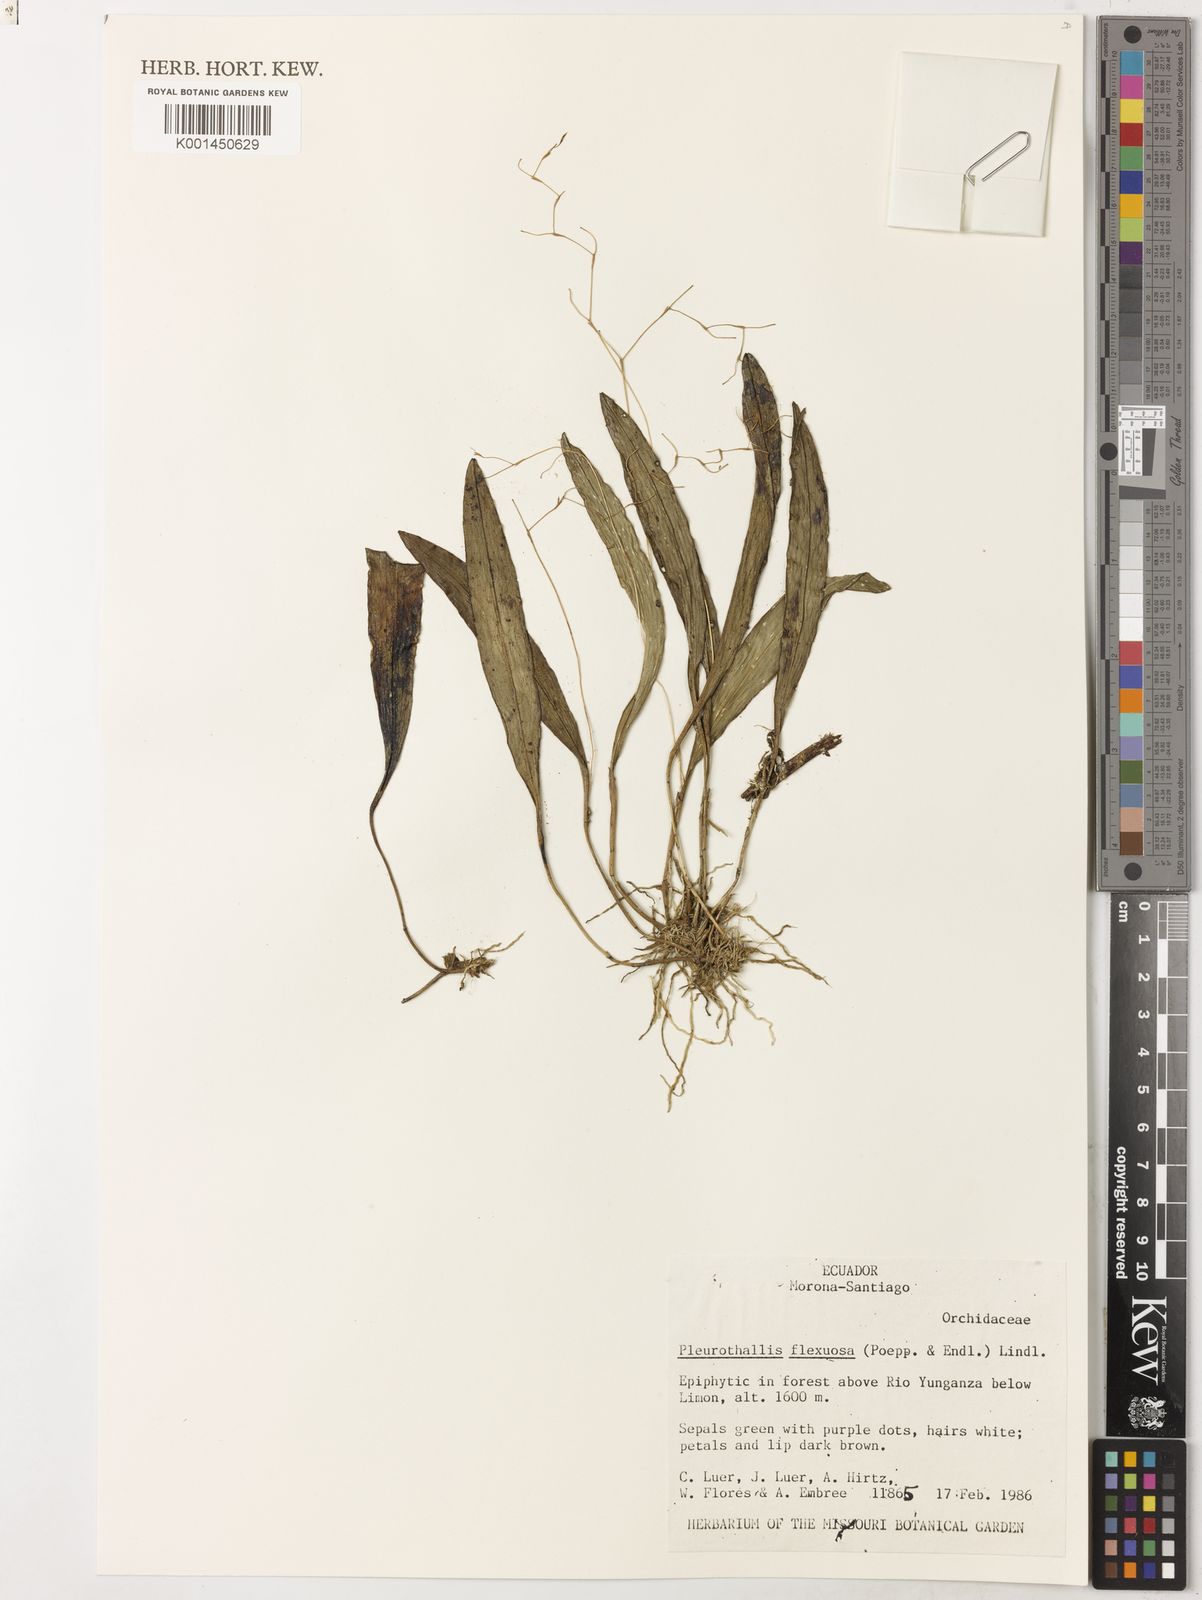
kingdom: Plantae
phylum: Tracheophyta
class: Liliopsida
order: Asparagales
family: Orchidaceae
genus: Stelis
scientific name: Stelis concinna
